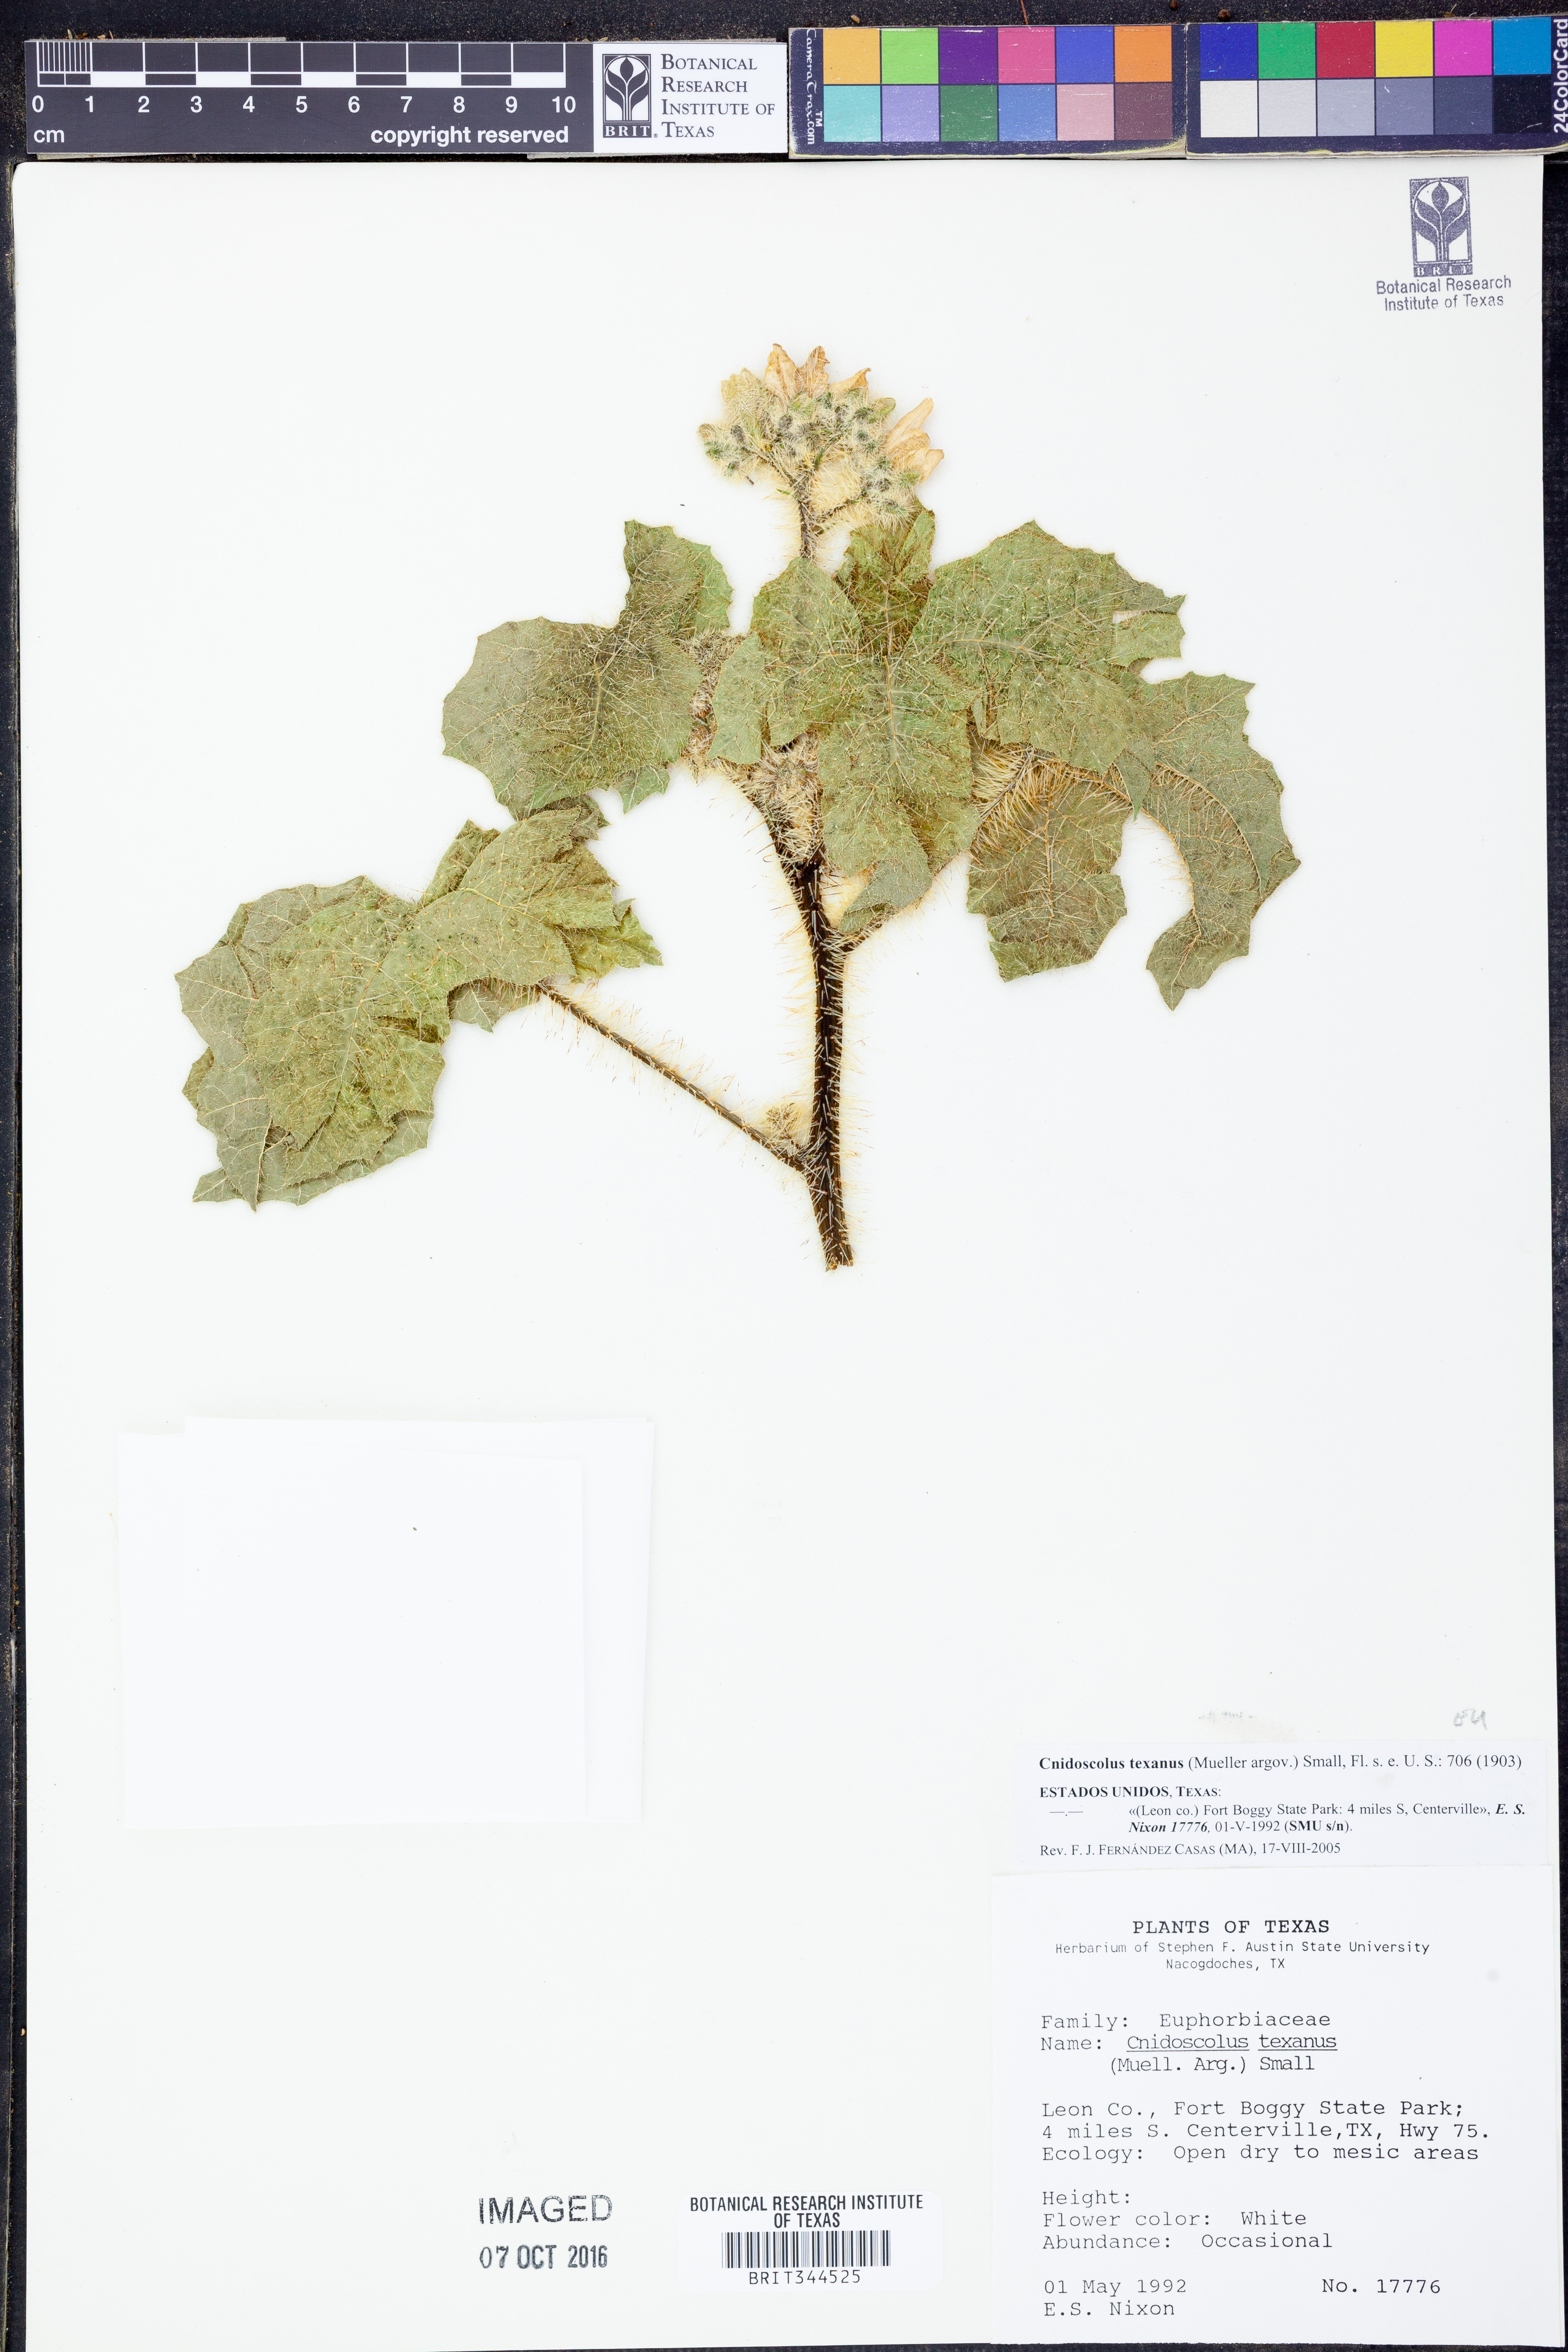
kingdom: Plantae
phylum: Tracheophyta
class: Magnoliopsida
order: Malpighiales
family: Euphorbiaceae
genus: Cnidoscolus
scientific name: Cnidoscolus texanus
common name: Texas bull-nettle
